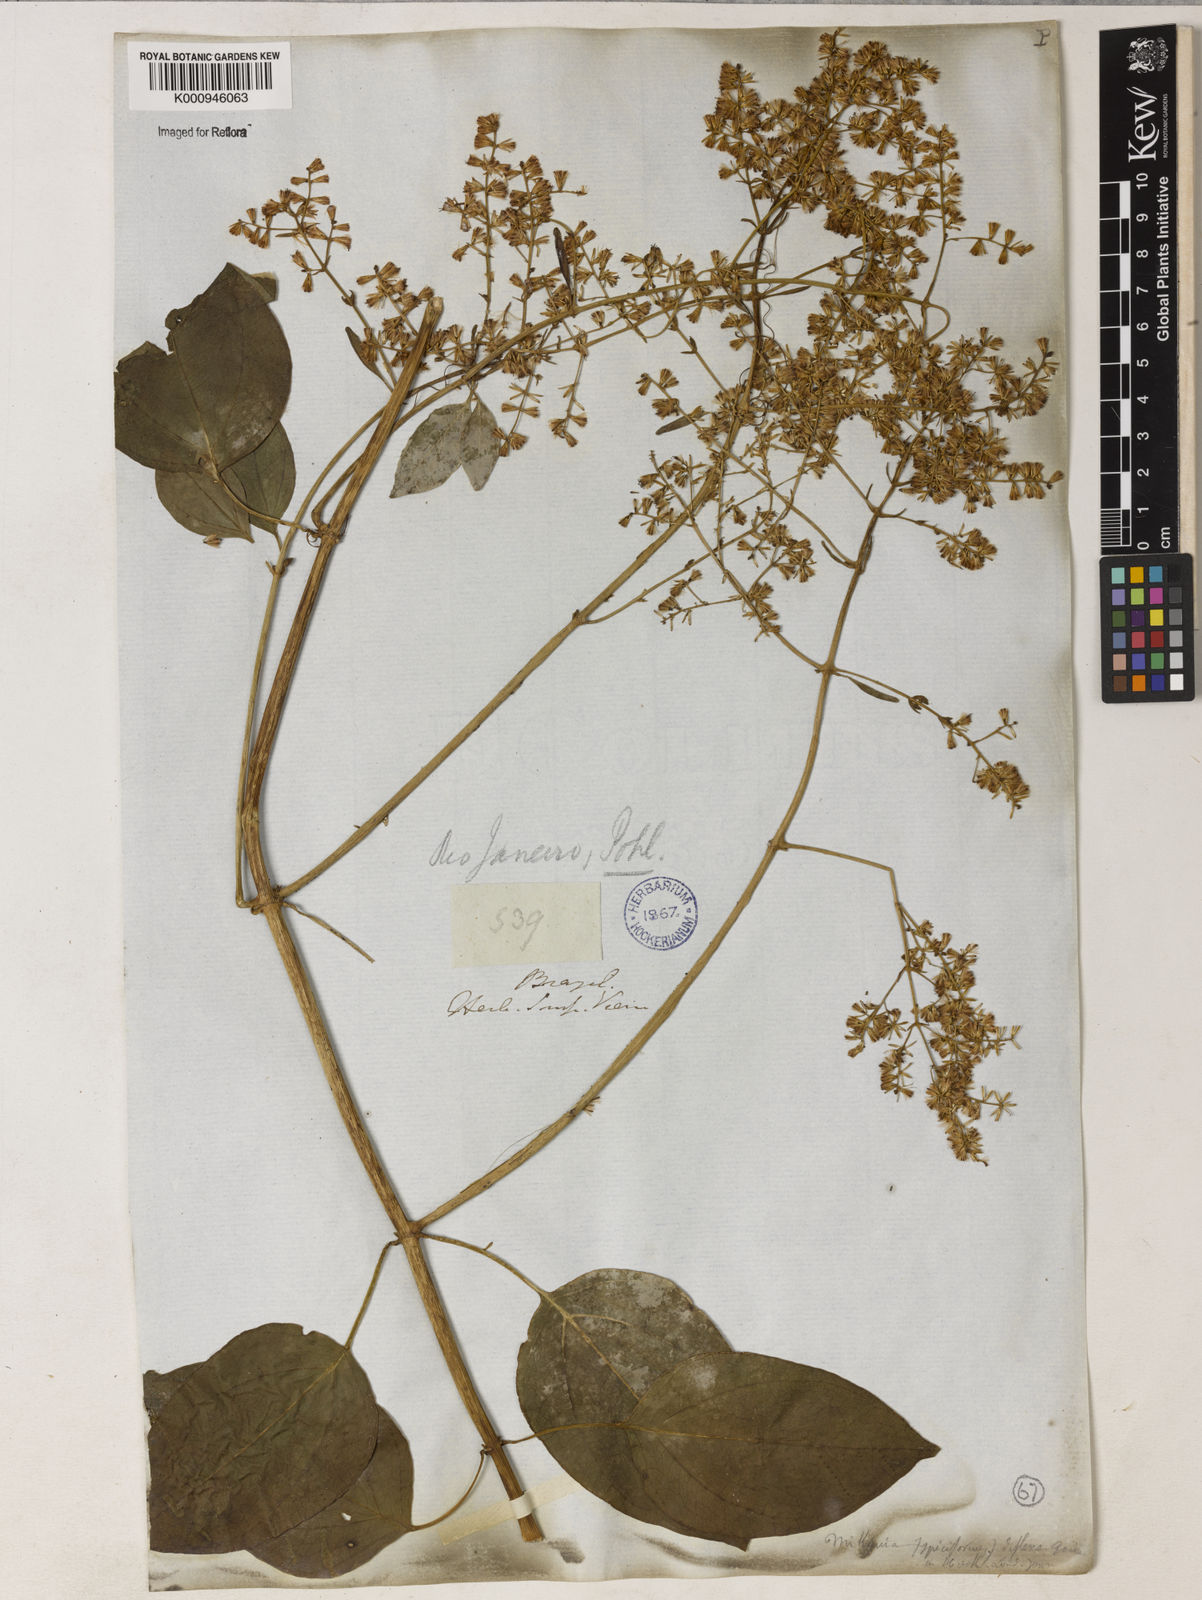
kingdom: Plantae
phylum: Tracheophyta
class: Magnoliopsida
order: Asterales
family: Asteraceae
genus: Mikania
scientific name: Mikania lundiana
